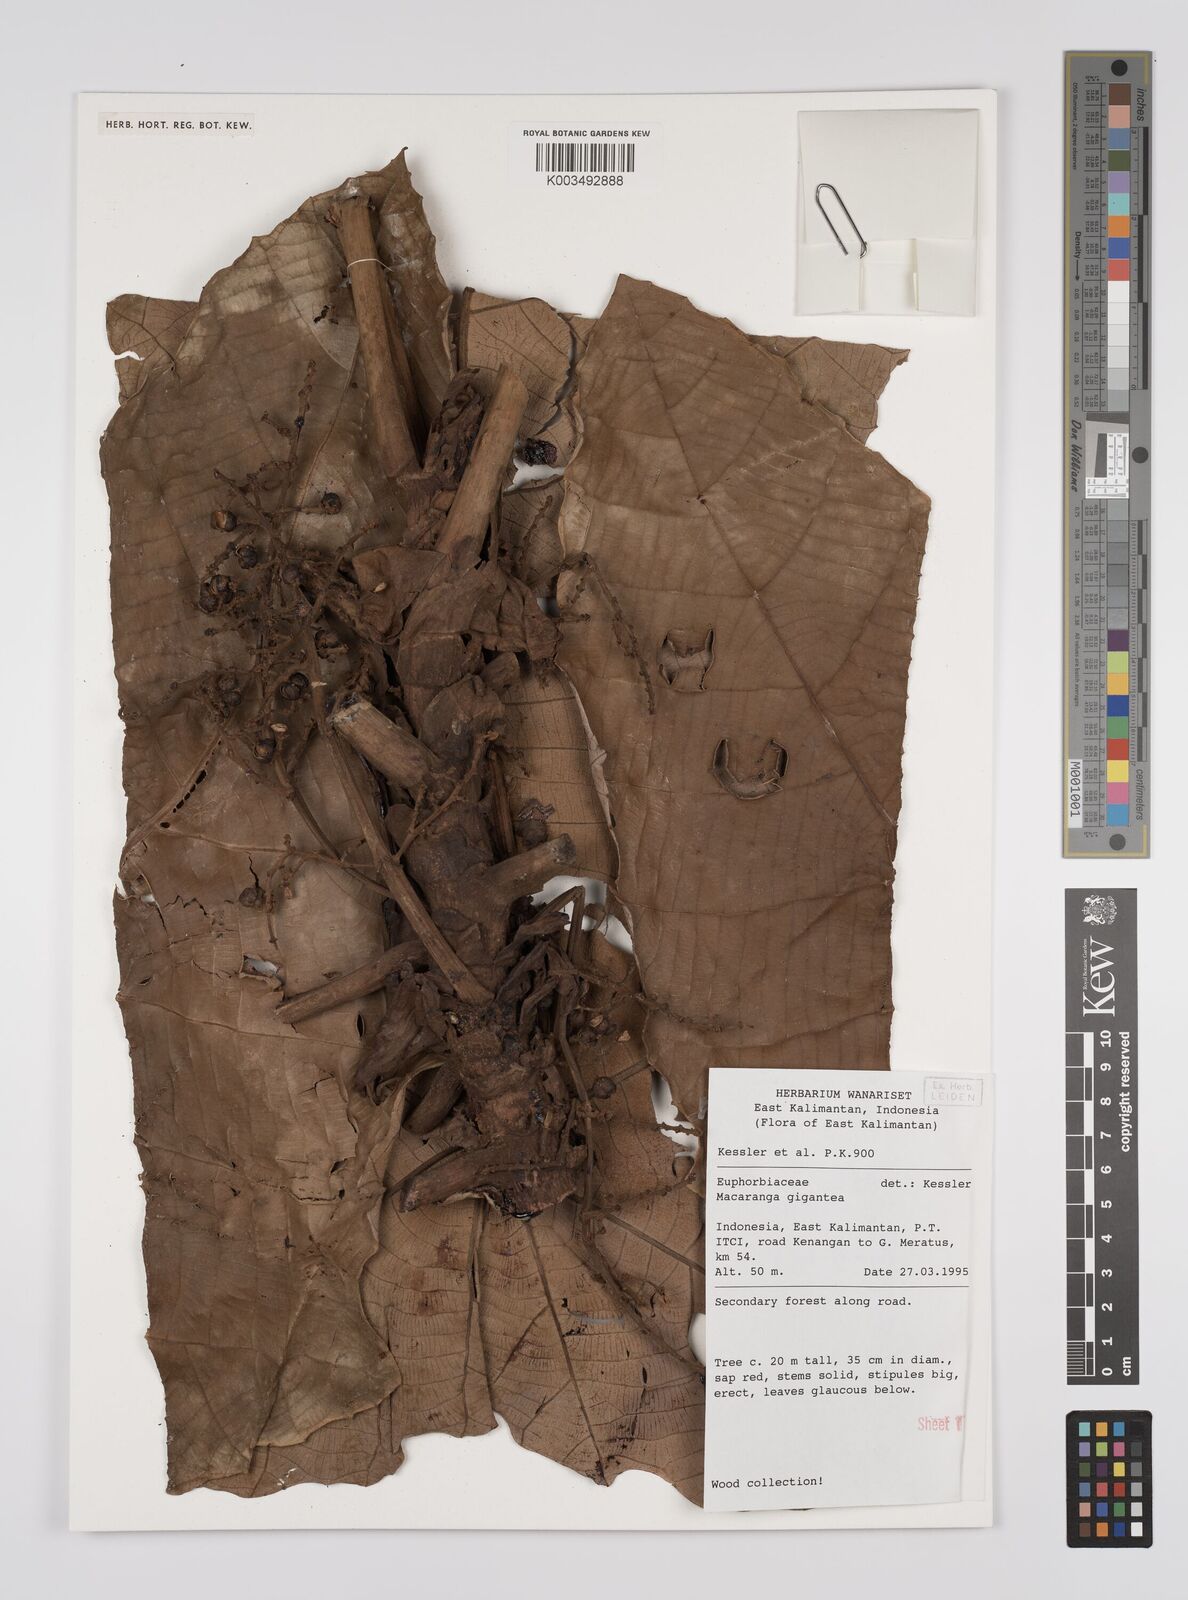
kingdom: Plantae
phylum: Tracheophyta
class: Magnoliopsida
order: Malpighiales
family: Euphorbiaceae
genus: Macaranga
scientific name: Macaranga
